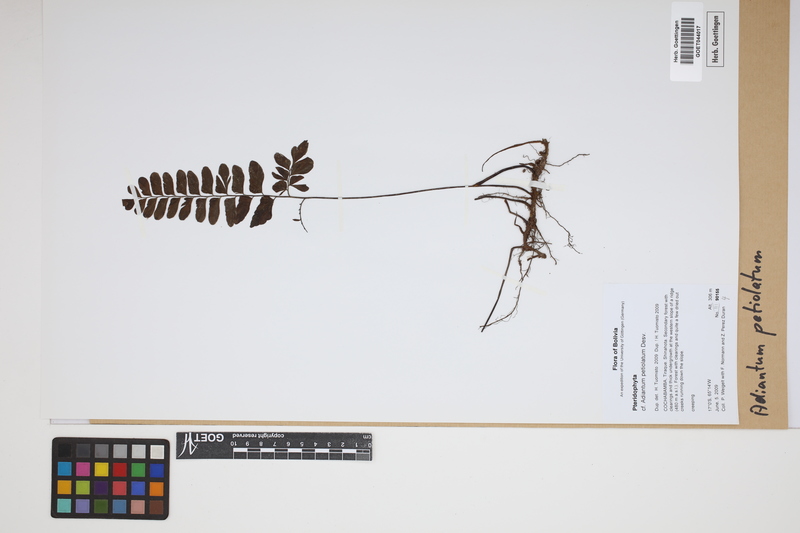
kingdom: Plantae
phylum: Tracheophyta
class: Polypodiopsida
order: Polypodiales
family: Pteridaceae
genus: Adiantum
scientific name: Adiantum petiolatum
